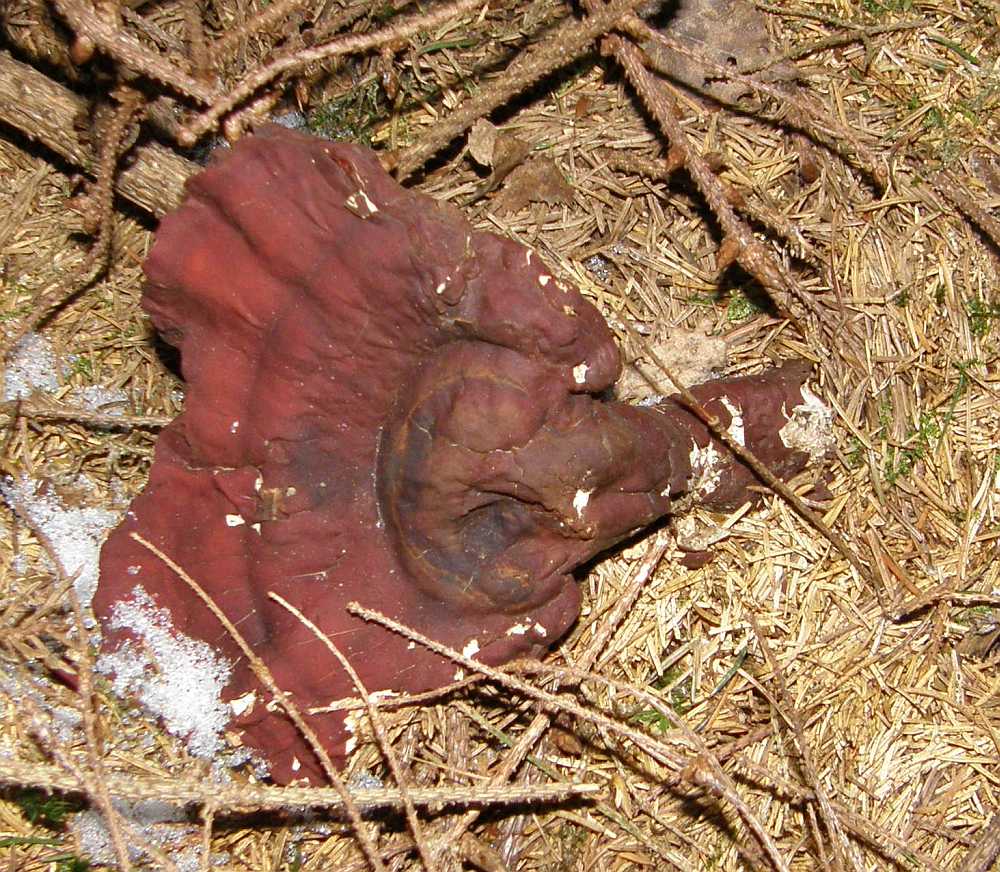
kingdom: Fungi
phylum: Basidiomycota
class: Agaricomycetes
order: Polyporales
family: Polyporaceae
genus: Ganoderma
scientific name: Ganoderma lucidum
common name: skinnende lakporesvamp
